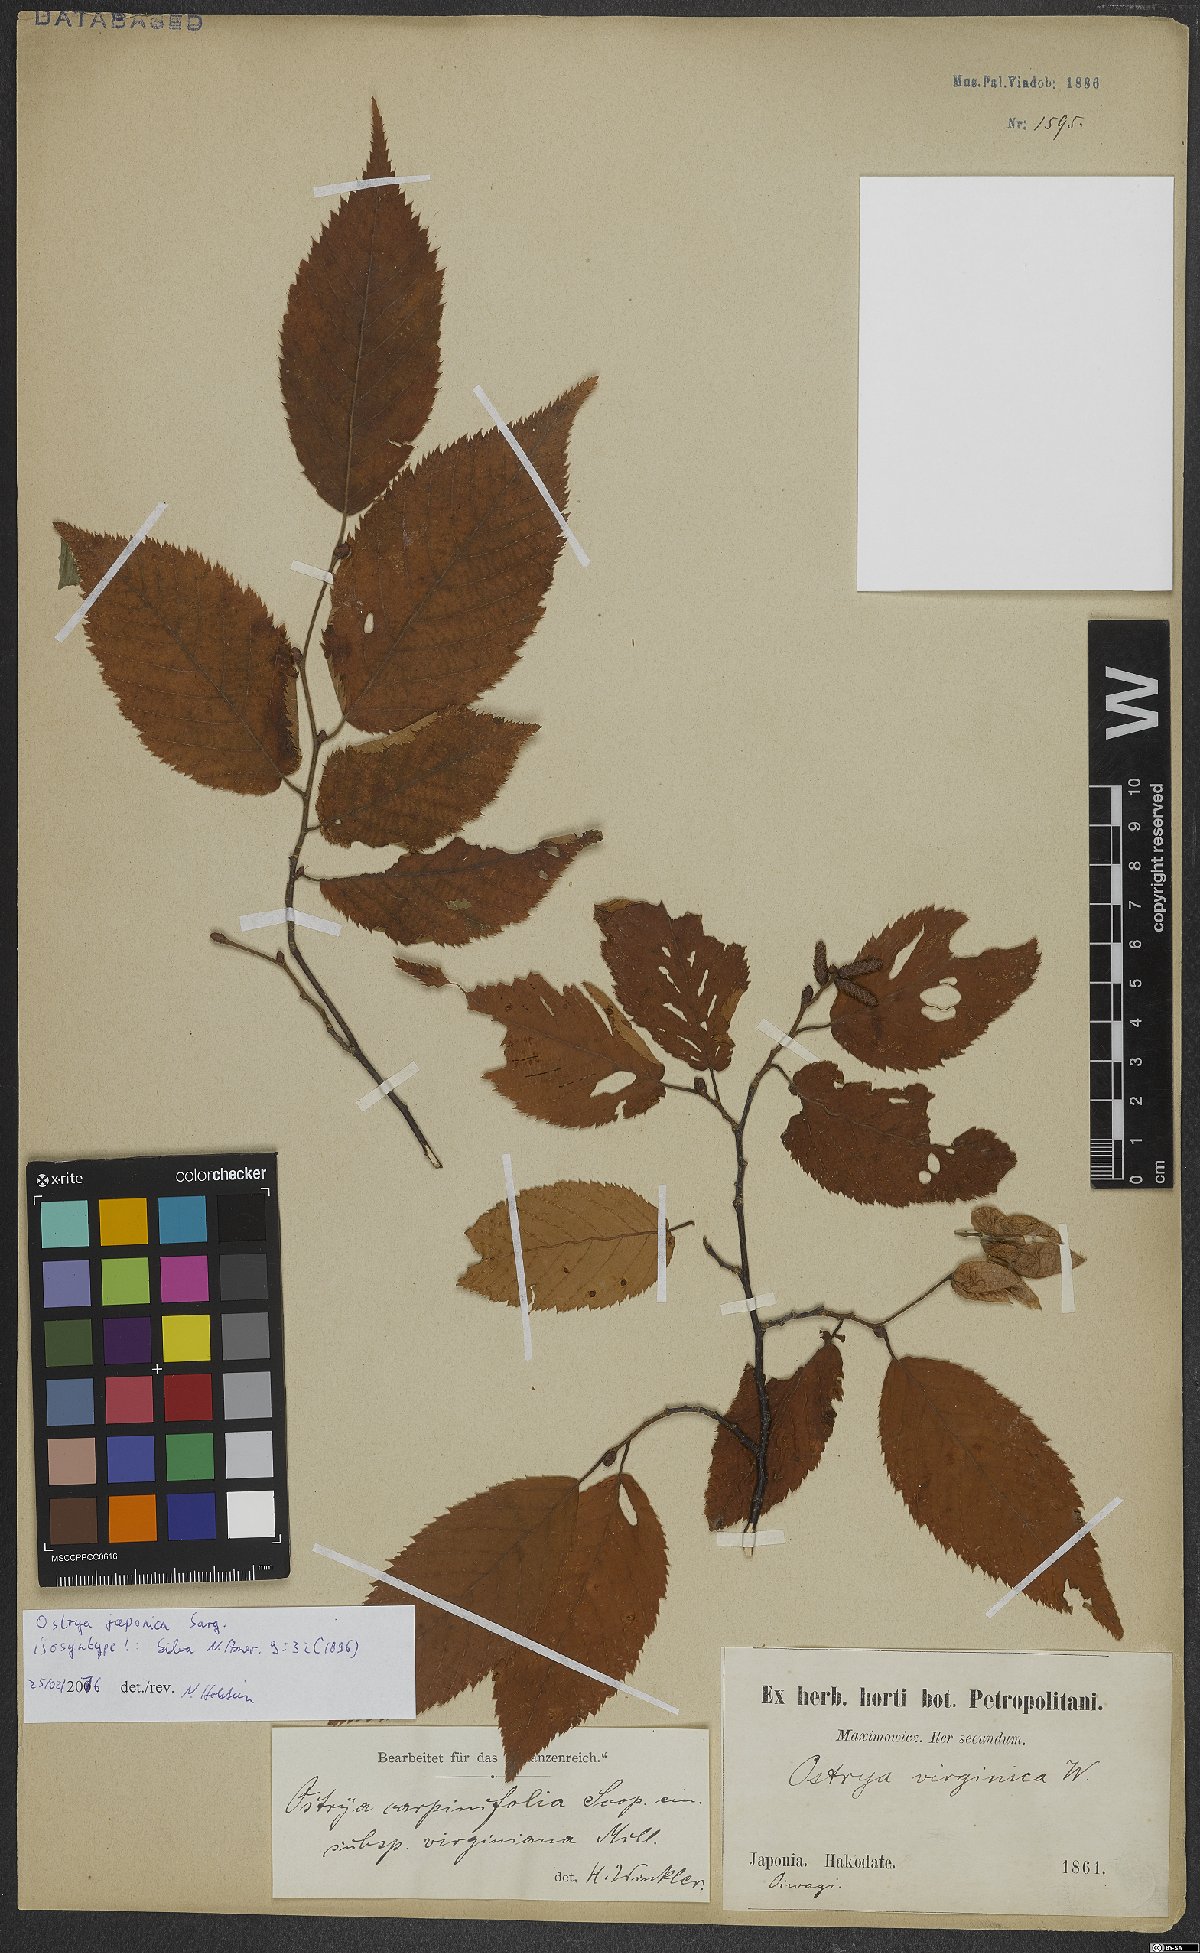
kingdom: Plantae
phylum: Tracheophyta
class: Magnoliopsida
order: Fagales
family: Betulaceae
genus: Ostrya
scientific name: Ostrya japonica
